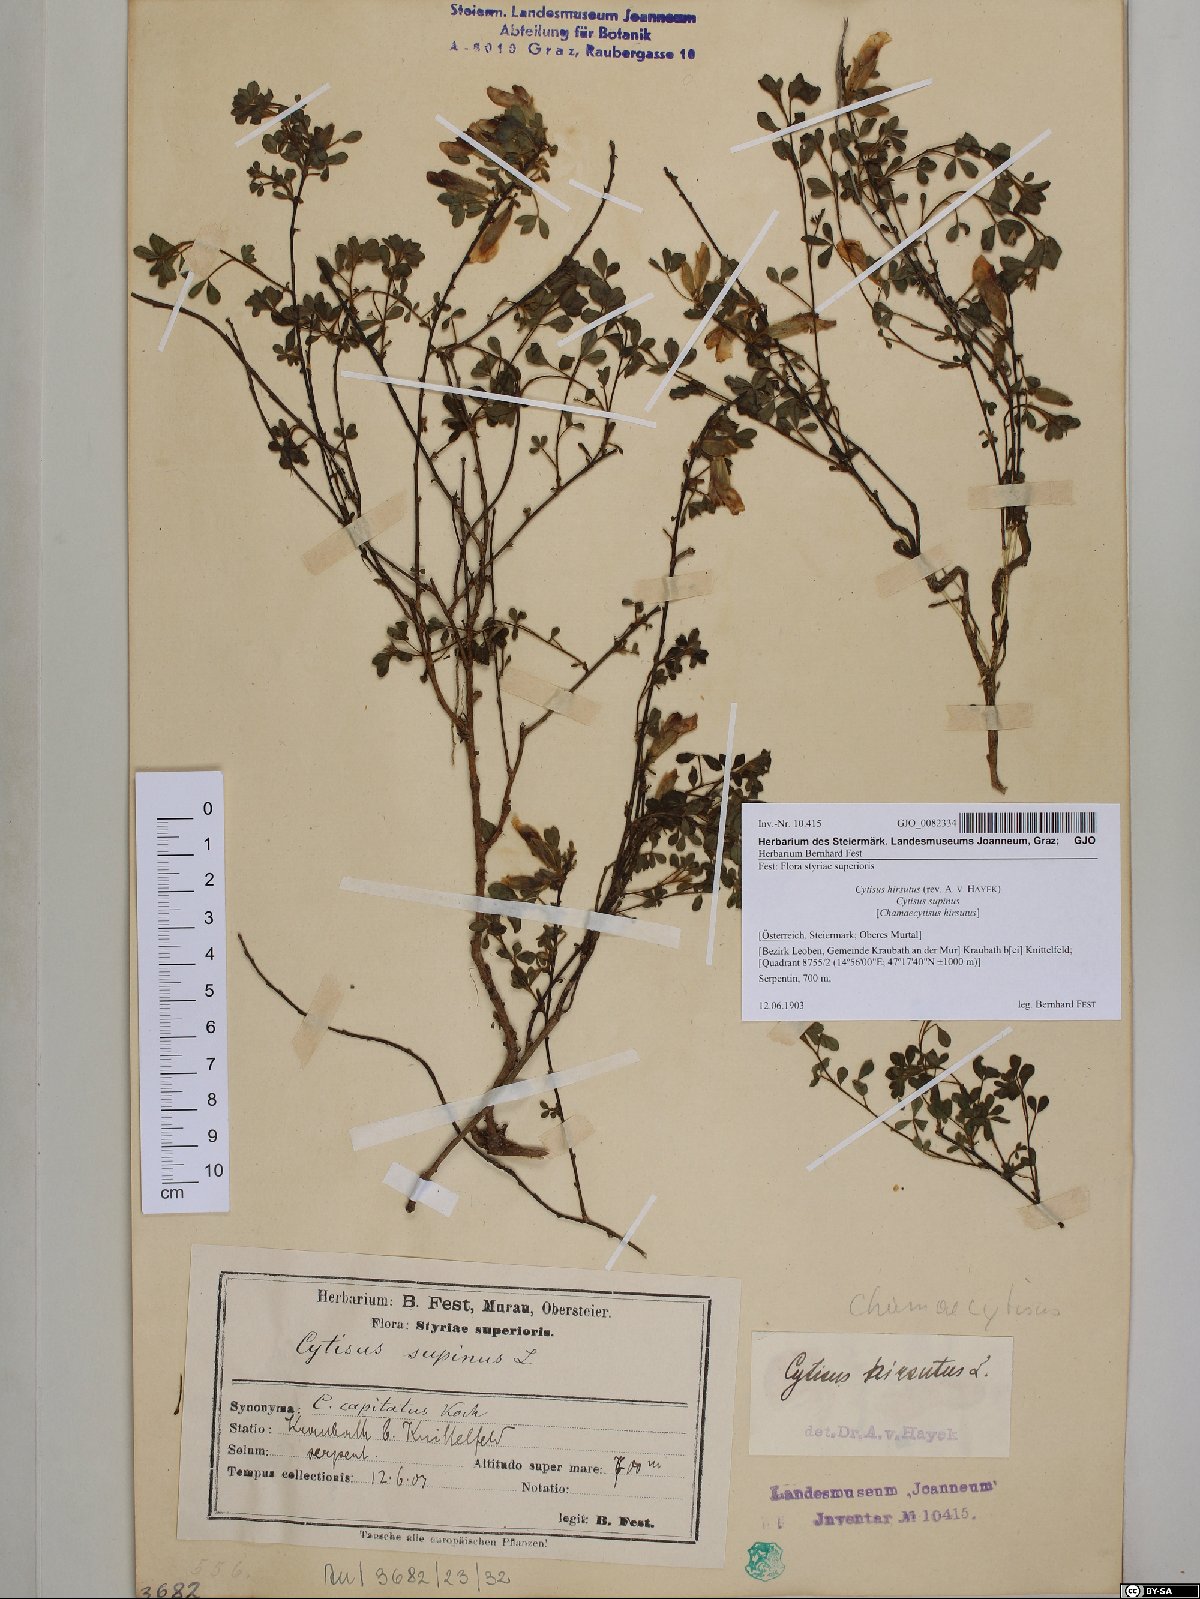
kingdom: Plantae
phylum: Tracheophyta
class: Magnoliopsida
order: Fabales
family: Fabaceae
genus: Chamaecytisus
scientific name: Chamaecytisus hirsutus
